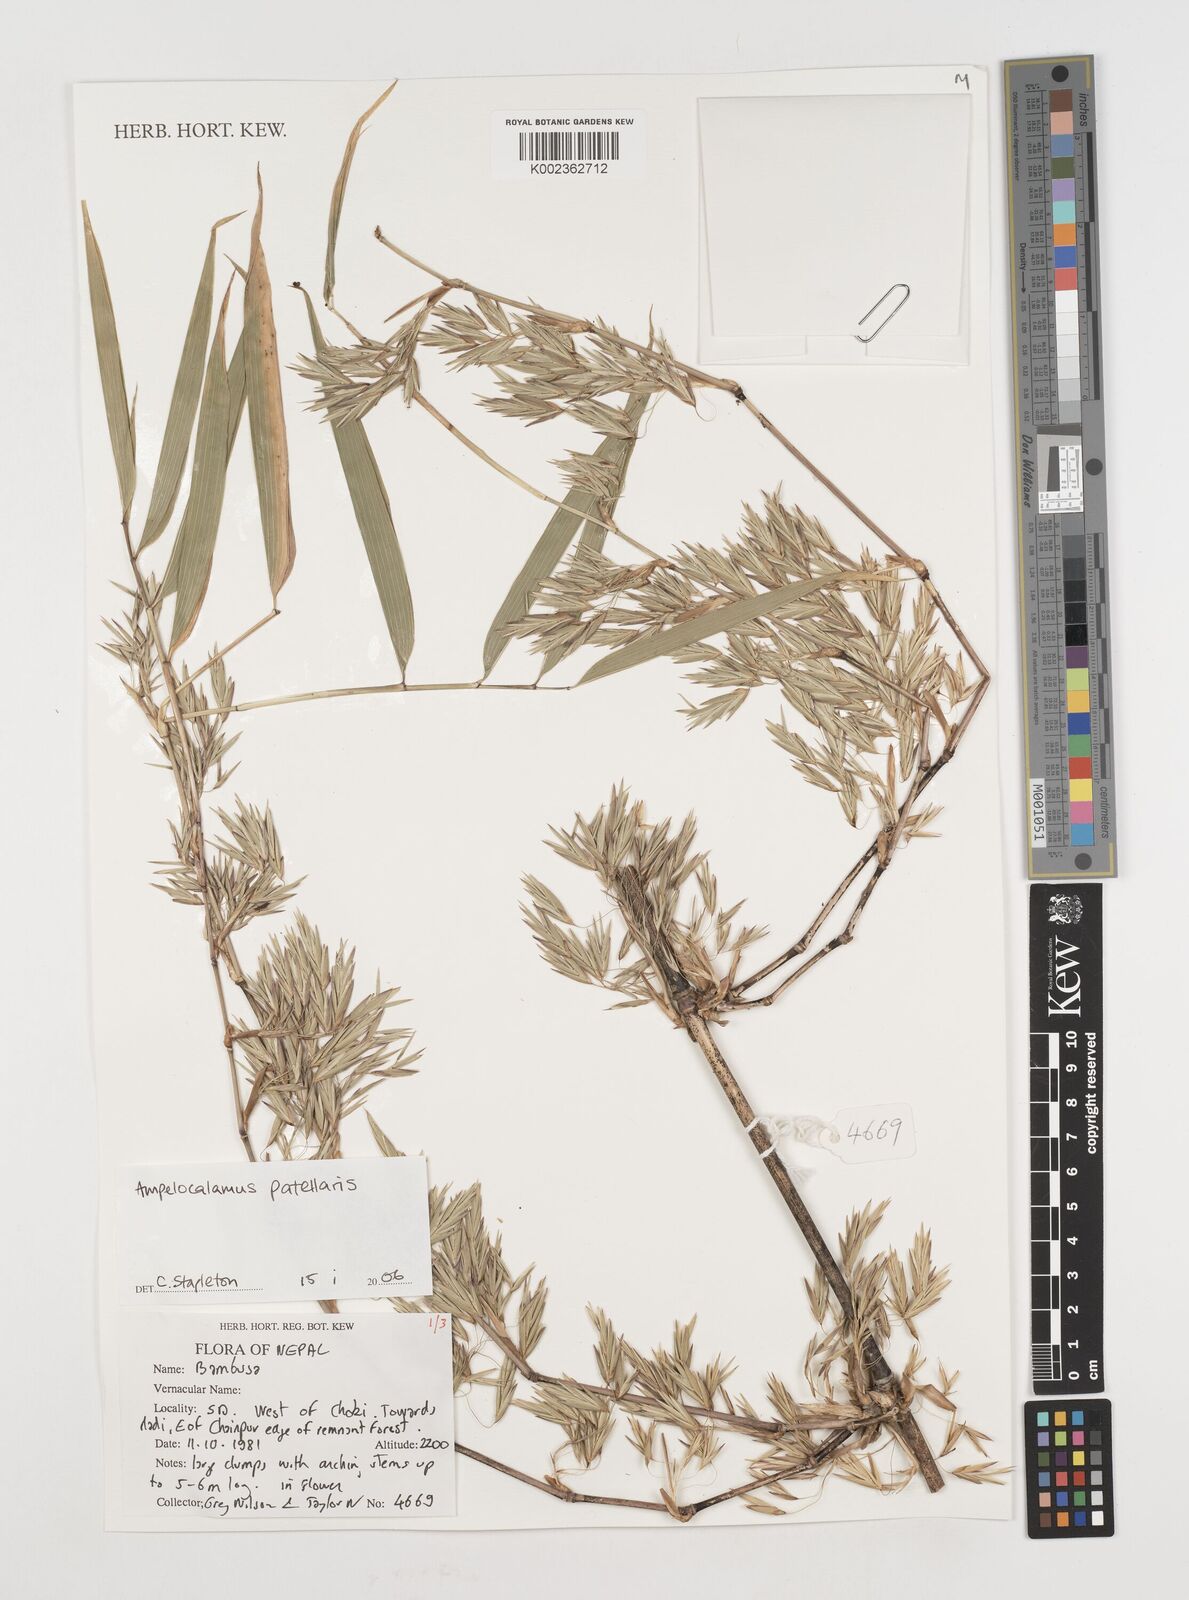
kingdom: Plantae
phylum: Tracheophyta
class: Liliopsida
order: Poales
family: Poaceae
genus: Ampelocalamus
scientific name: Ampelocalamus patellaris
